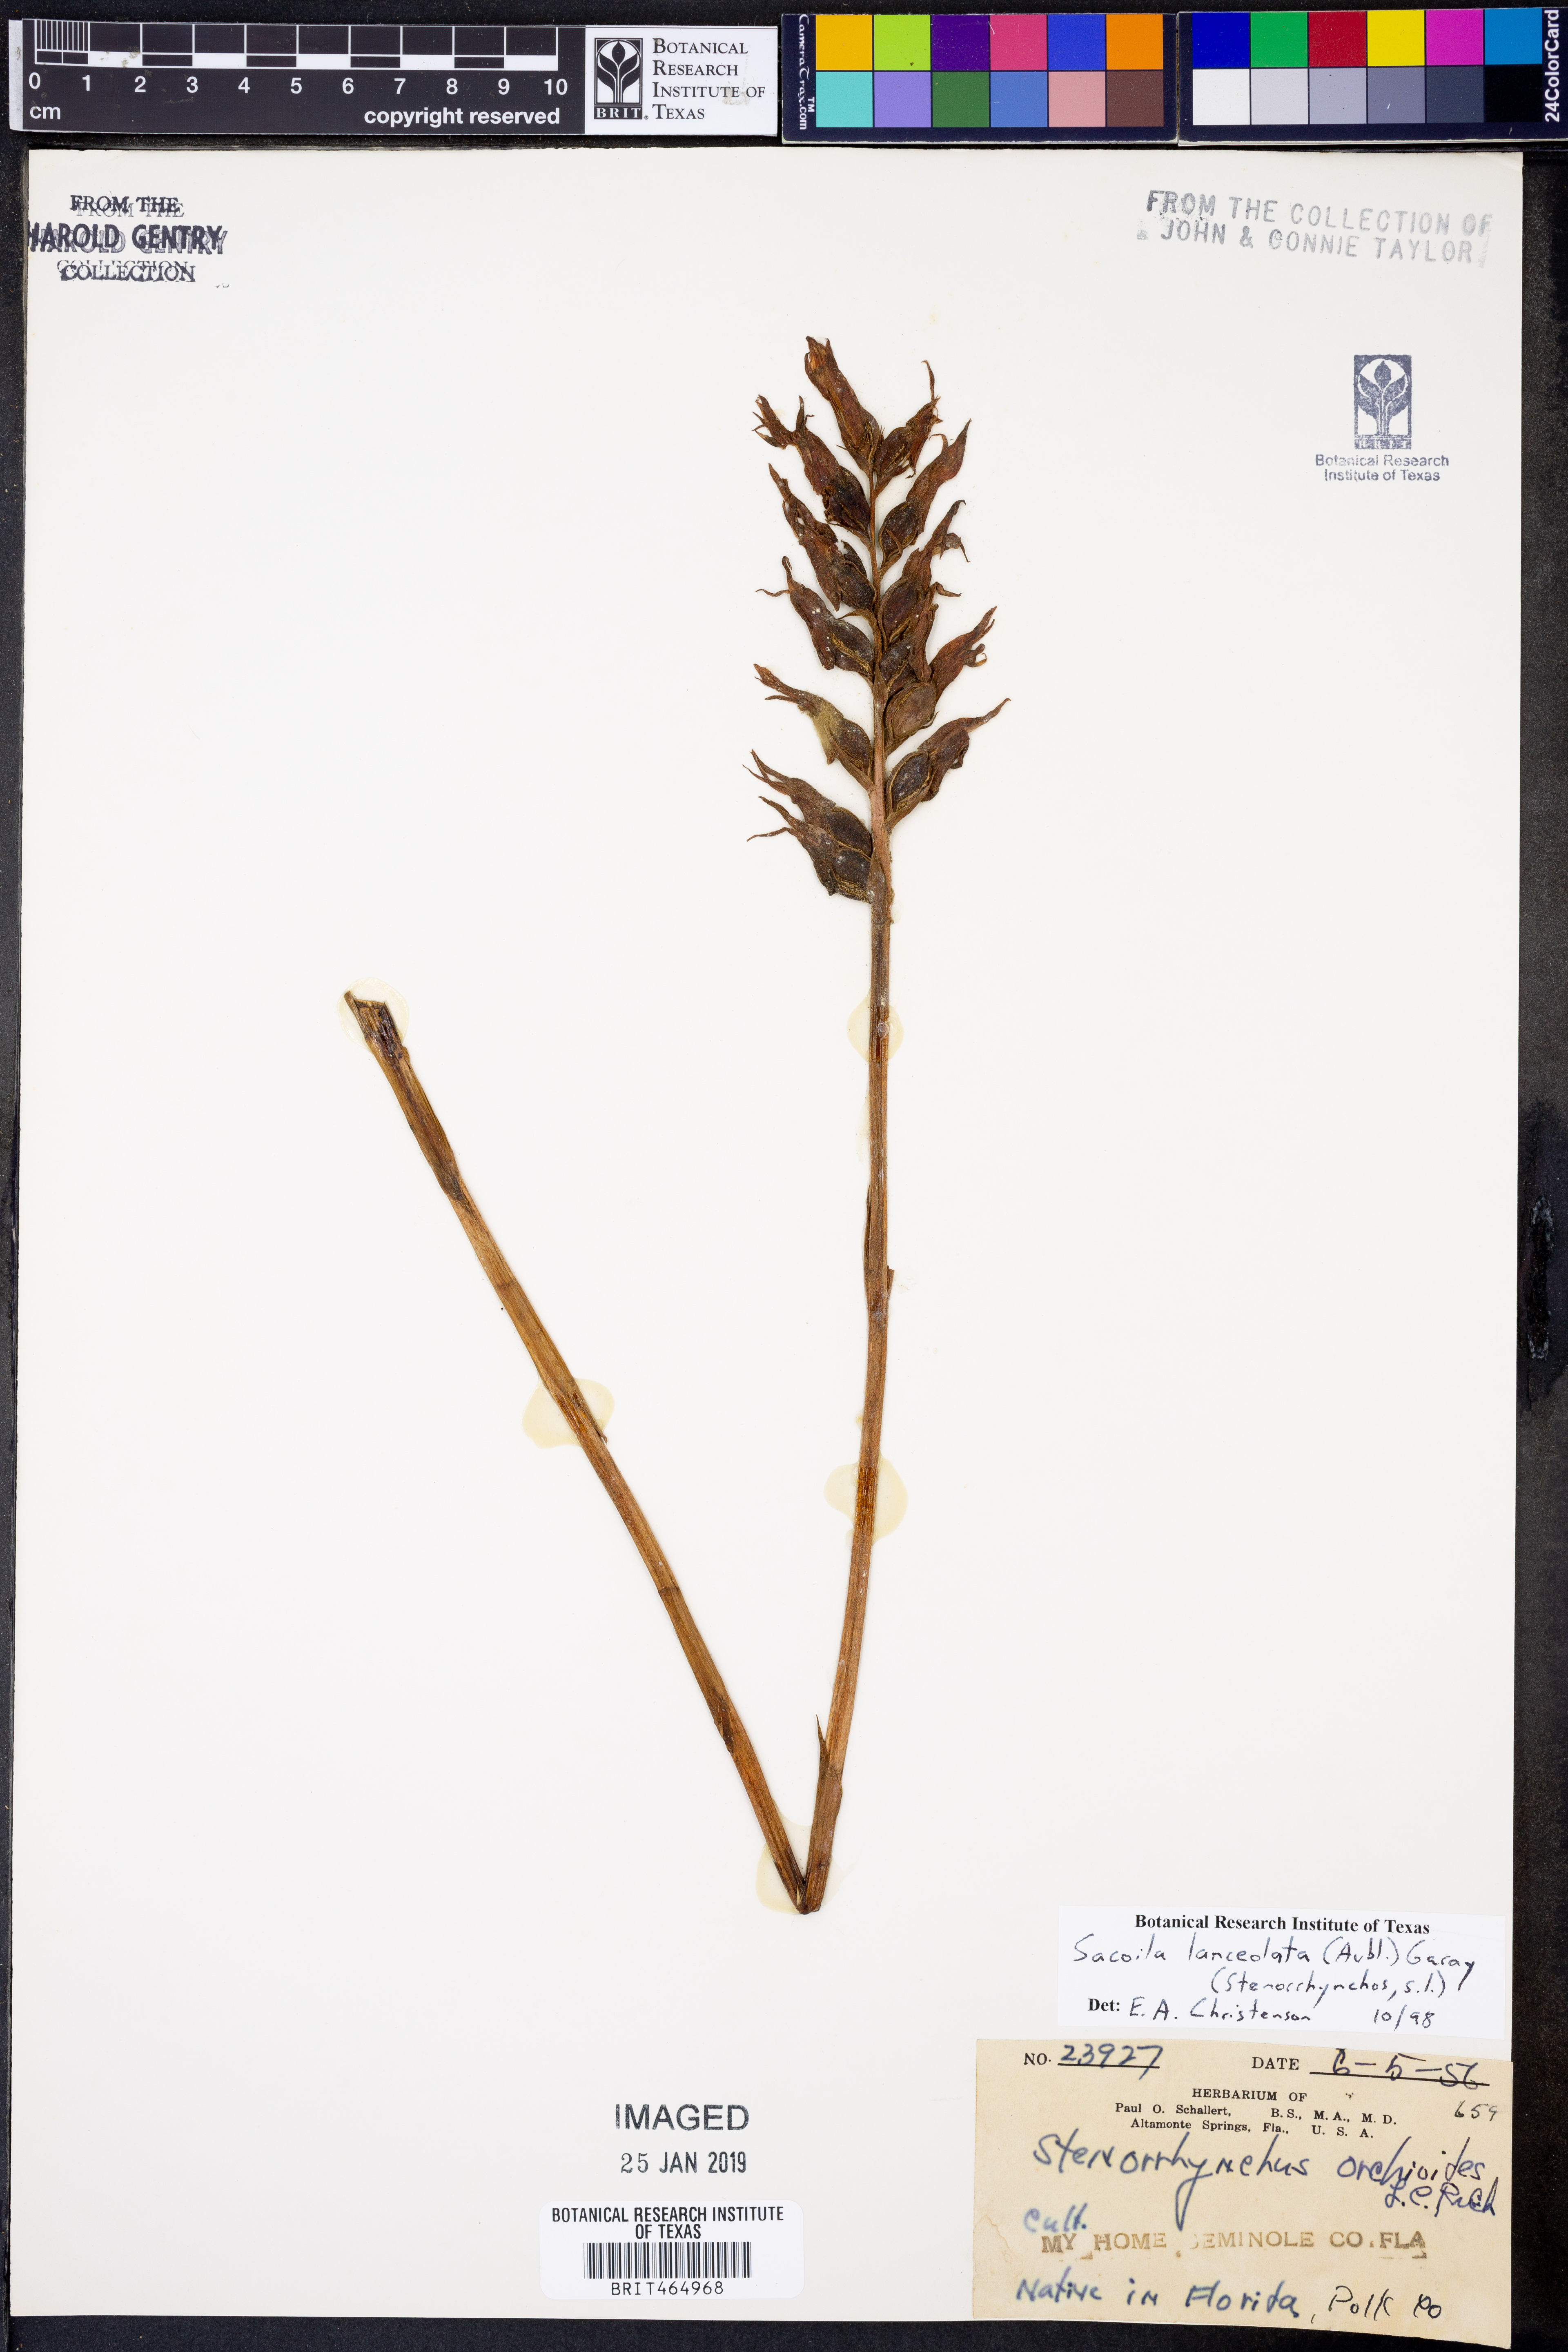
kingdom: Plantae
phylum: Tracheophyta
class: Liliopsida
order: Asparagales
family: Orchidaceae
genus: Sacoila
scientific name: Sacoila lanceolata
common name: Leafless beaked ladiestresses
